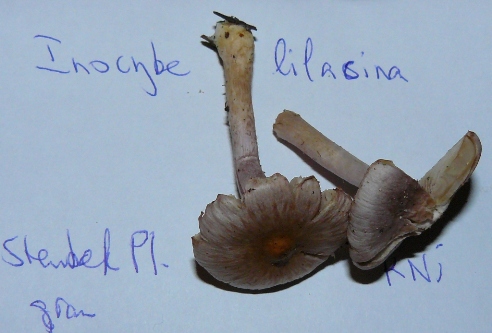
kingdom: Fungi
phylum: Basidiomycota
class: Agaricomycetes
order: Agaricales
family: Inocybaceae
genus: Inocybe
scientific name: Inocybe geophylla
